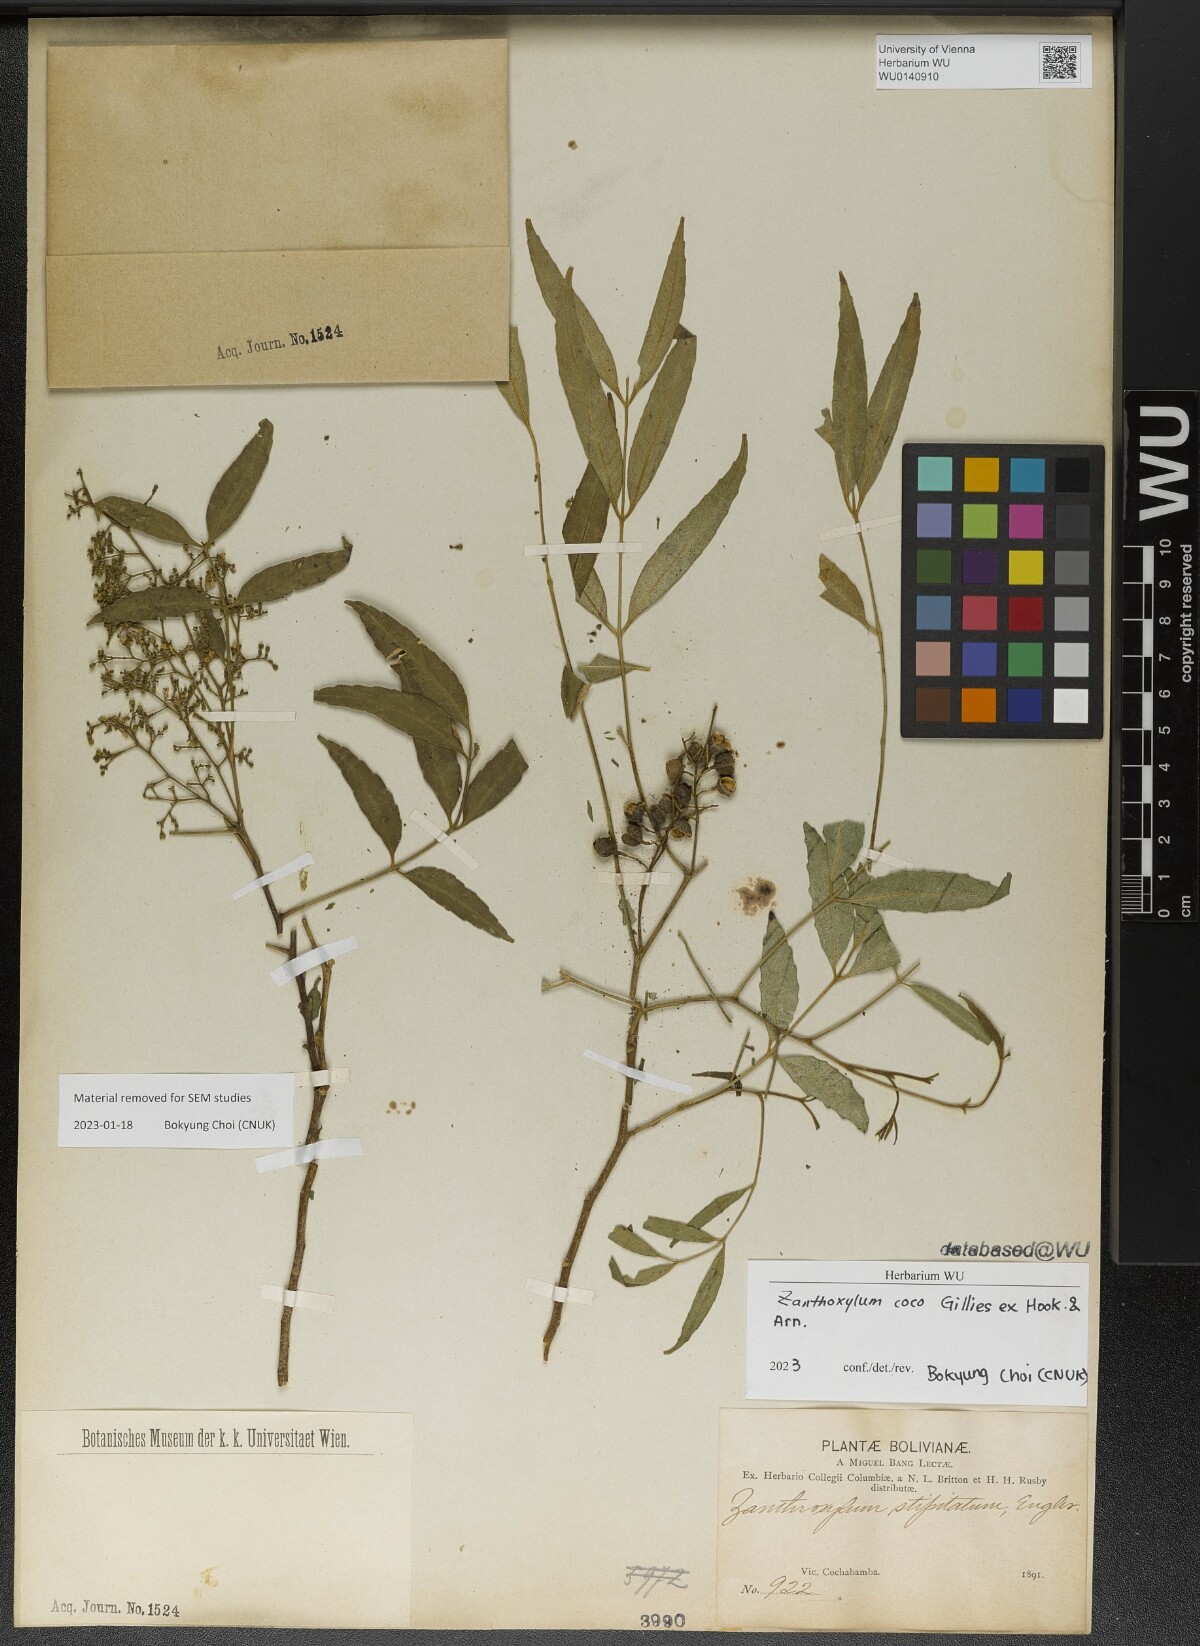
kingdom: Plantae
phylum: Tracheophyta
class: Magnoliopsida
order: Sapindales
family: Rutaceae
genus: Zanthoxylum
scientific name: Zanthoxylum coco
